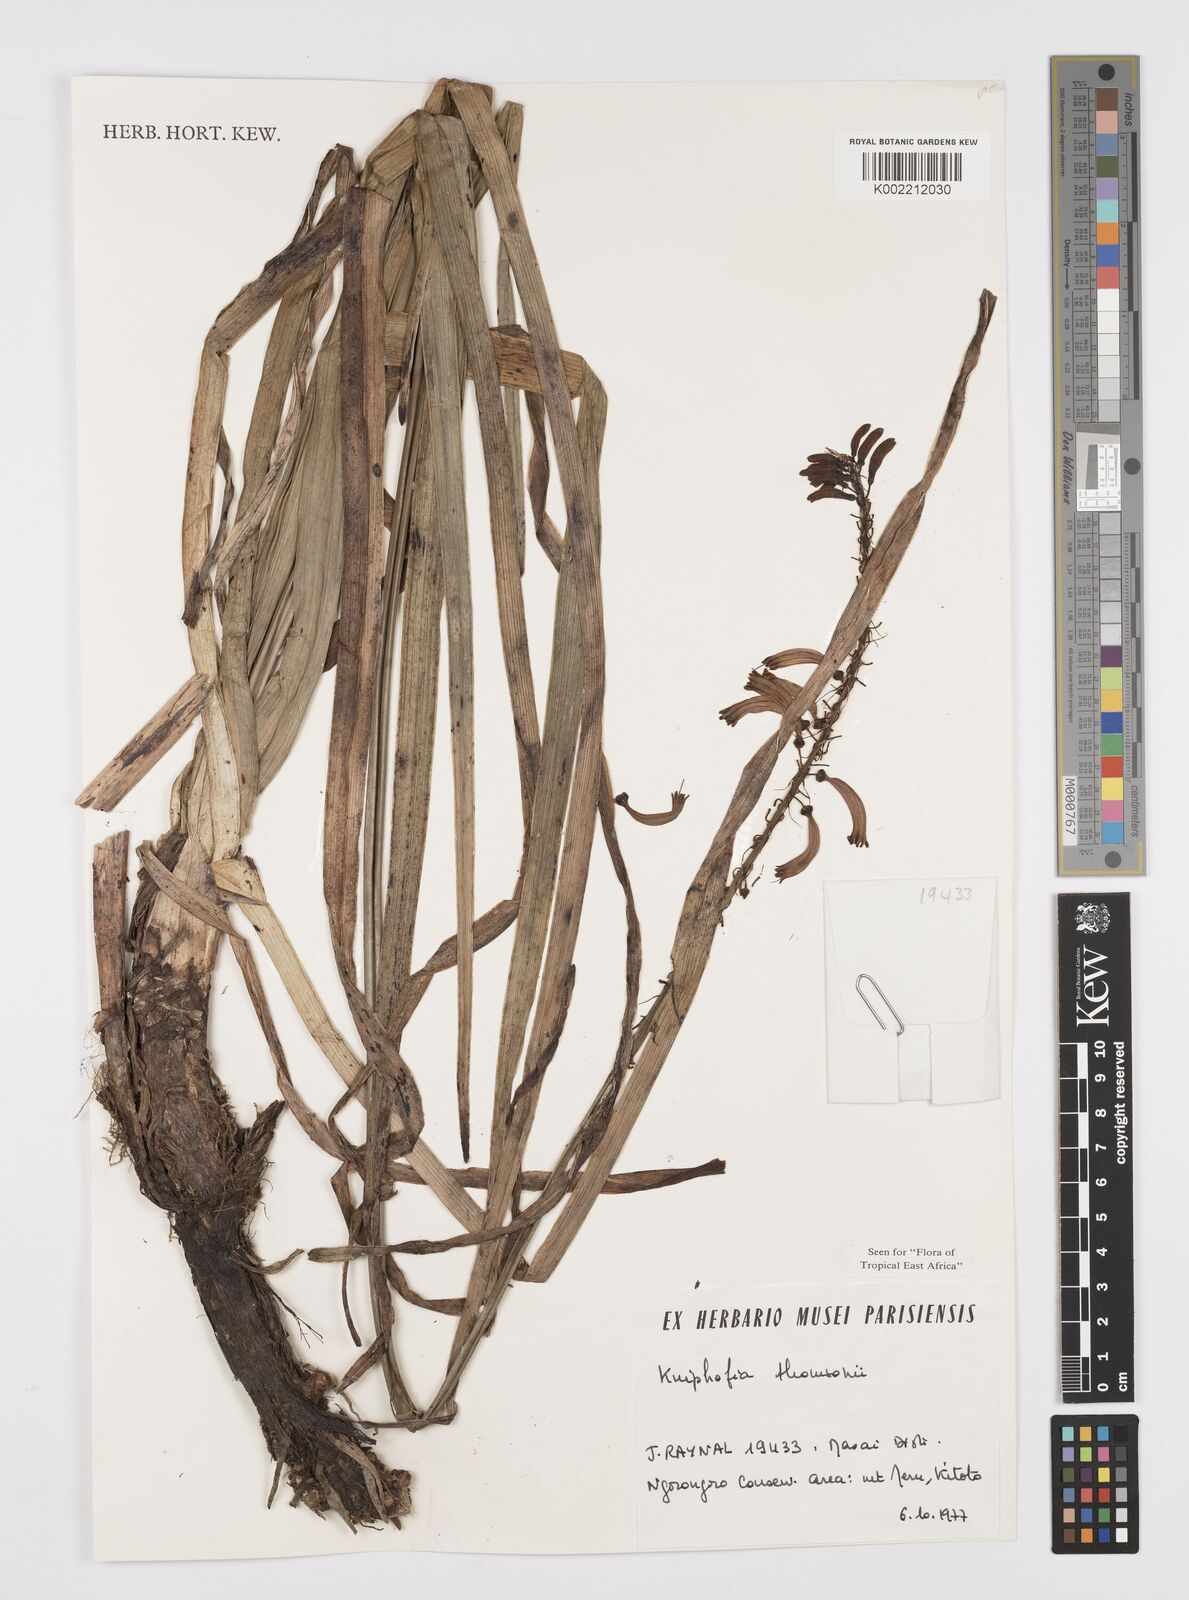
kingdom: Plantae
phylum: Tracheophyta
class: Liliopsida
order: Asparagales
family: Asphodelaceae
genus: Kniphofia
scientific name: Kniphofia thomsonii
